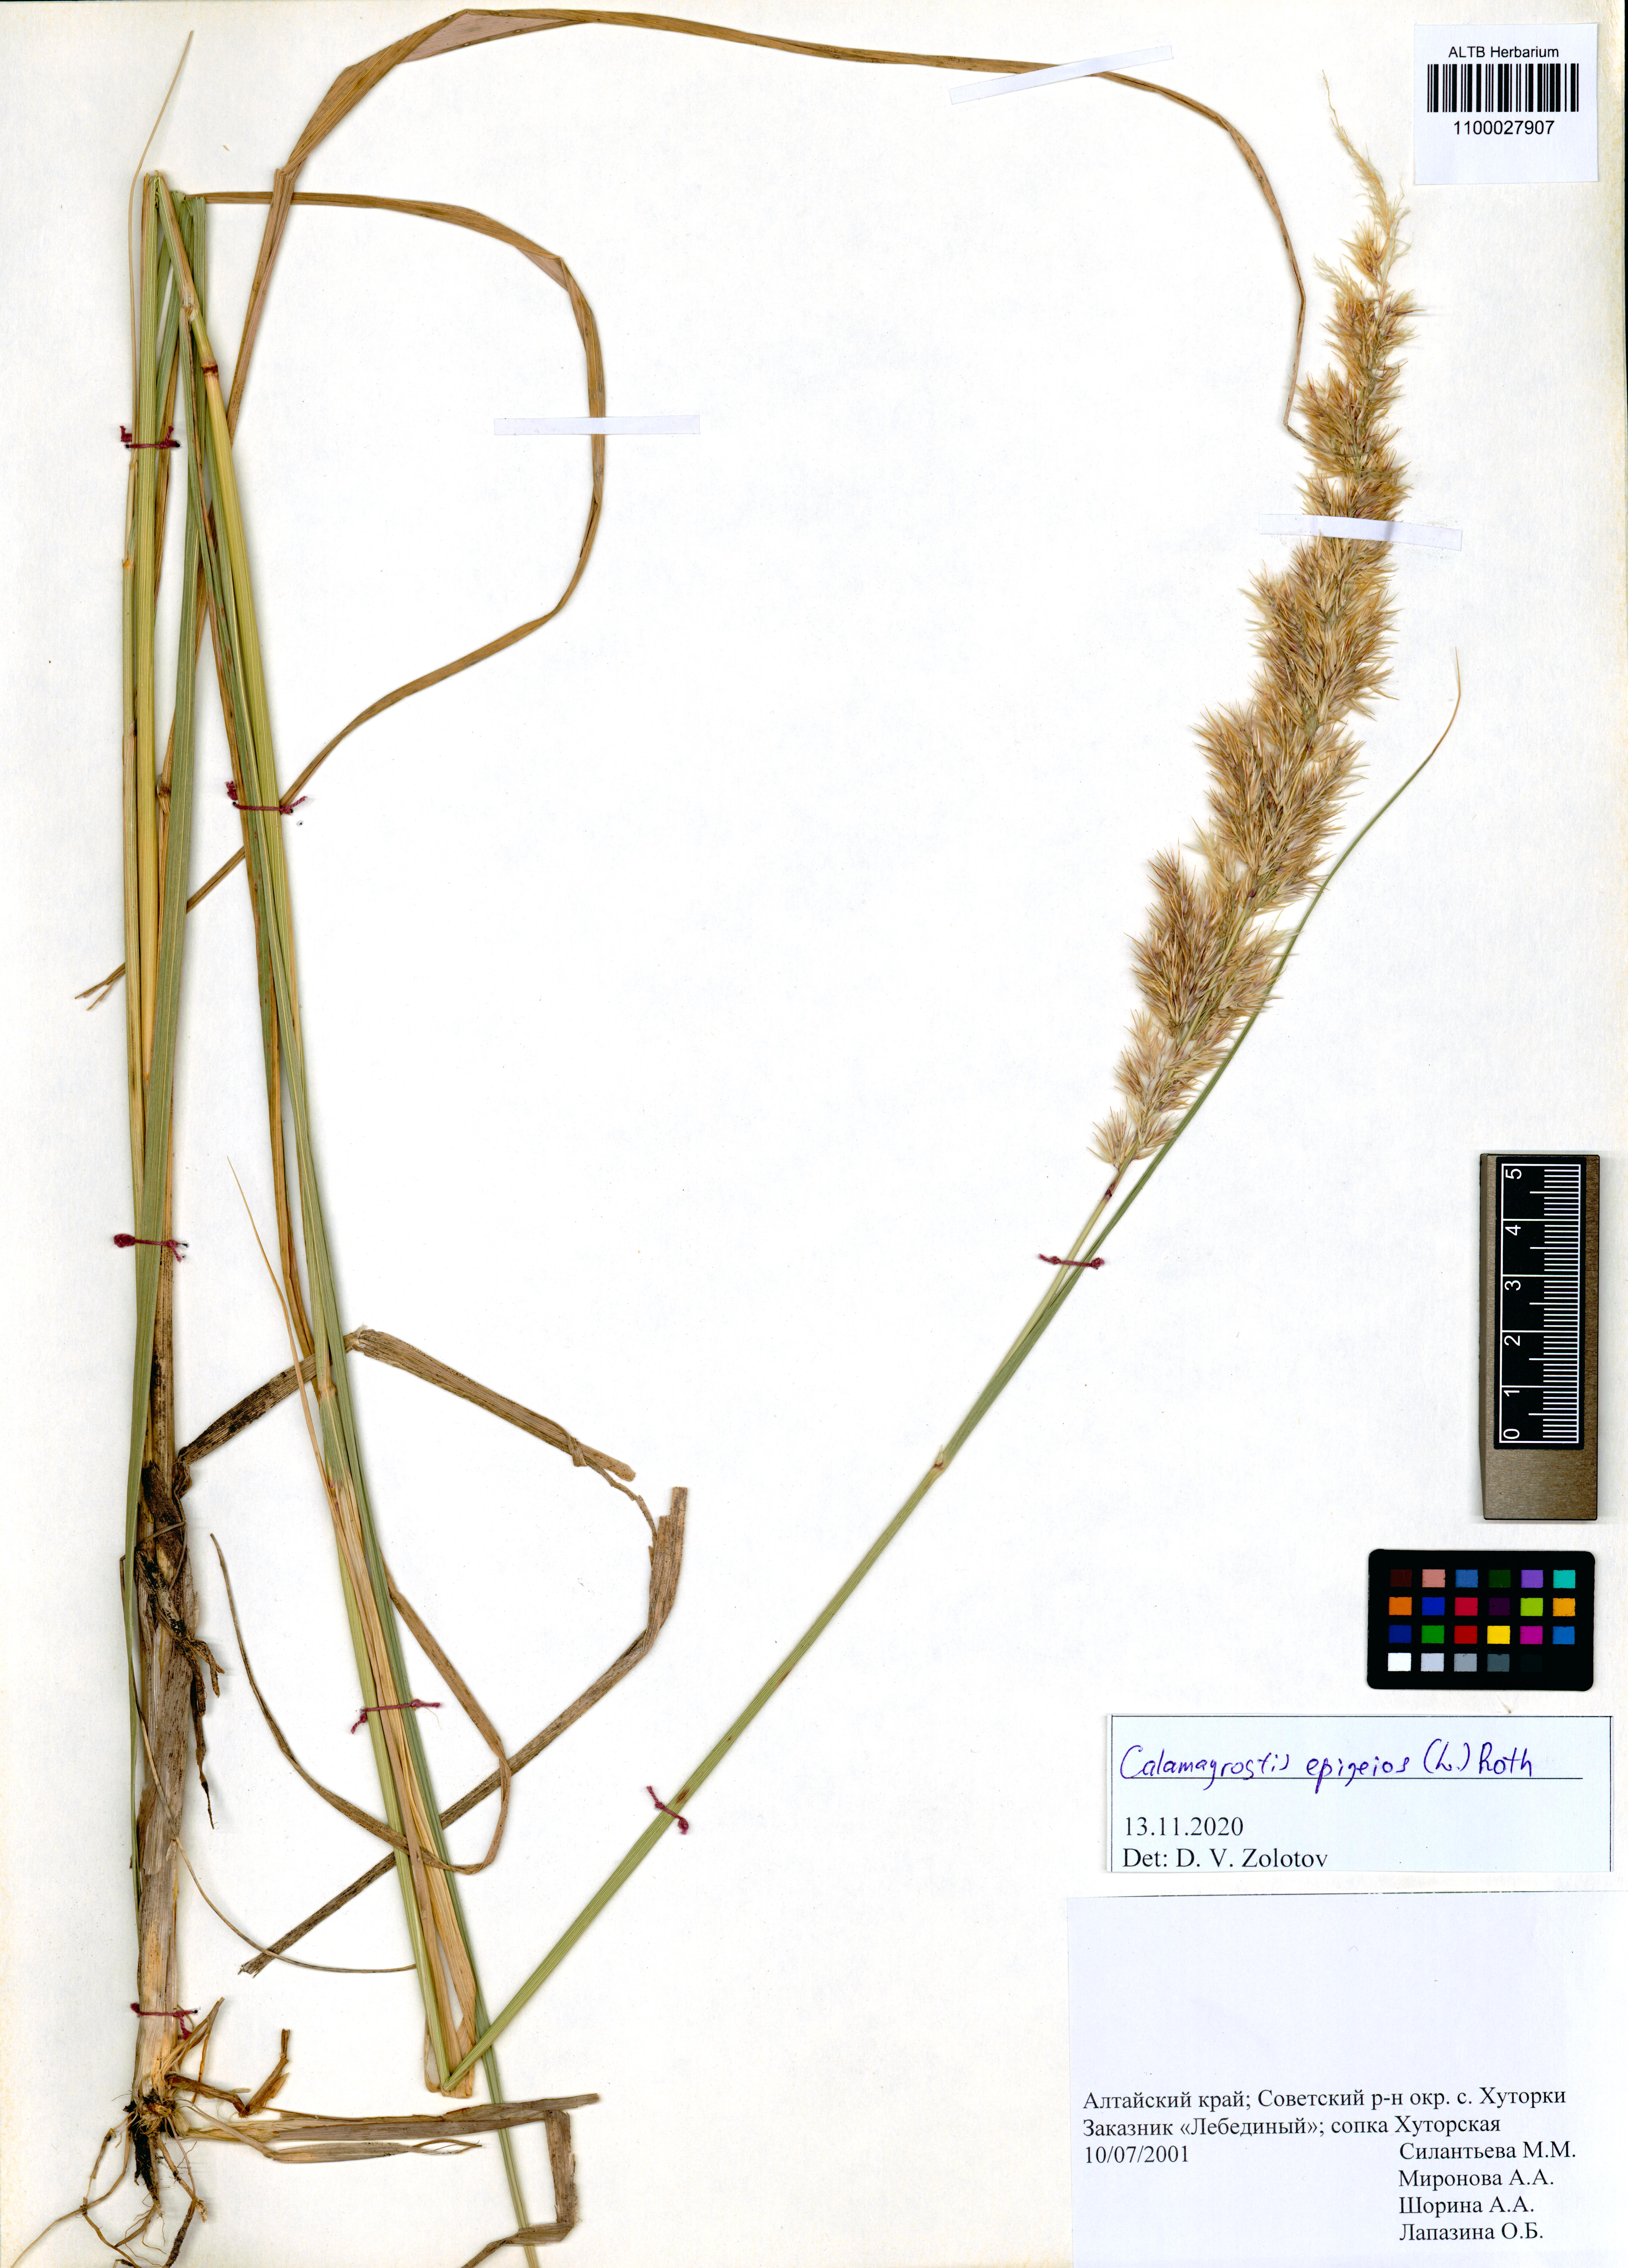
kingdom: Plantae
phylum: Tracheophyta
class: Liliopsida
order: Poales
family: Poaceae
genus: Calamagrostis
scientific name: Calamagrostis epigejos
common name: Wood small-reed
